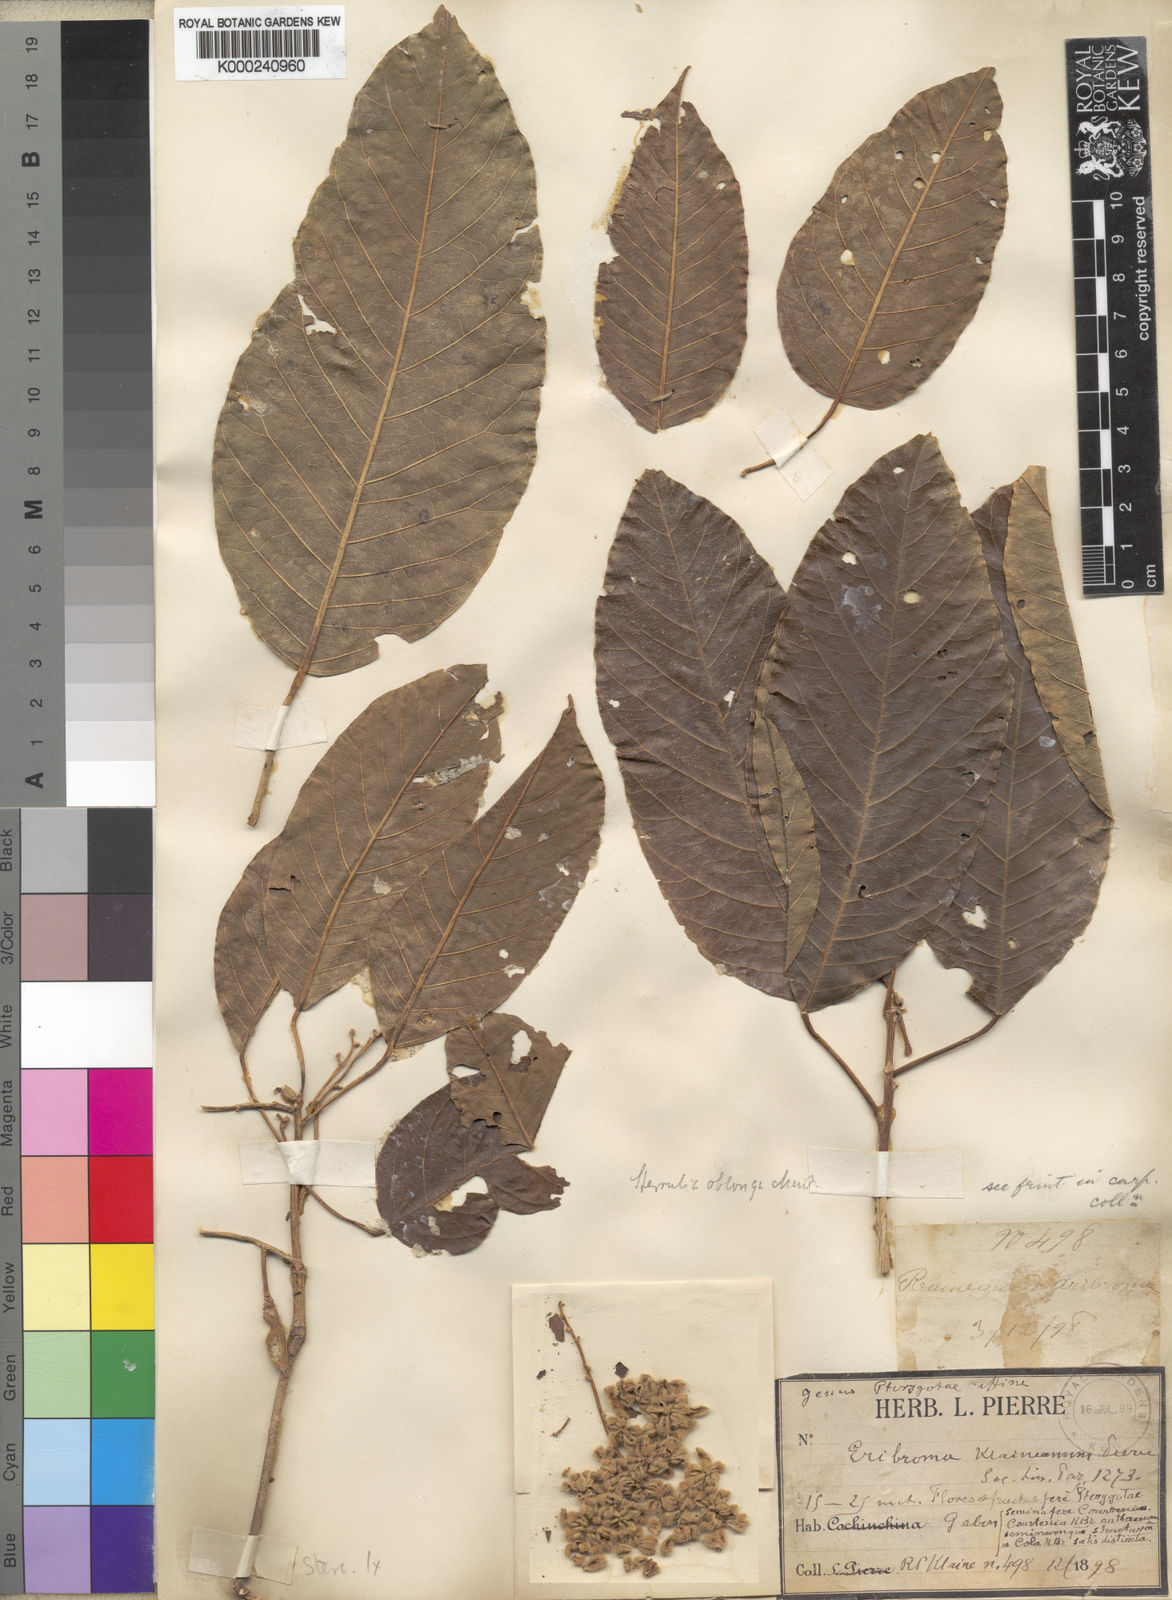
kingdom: Plantae
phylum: Tracheophyta
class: Magnoliopsida
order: Malvales
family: Malvaceae
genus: Sterculia
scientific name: Sterculia oblonga
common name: Yellow sterculia
